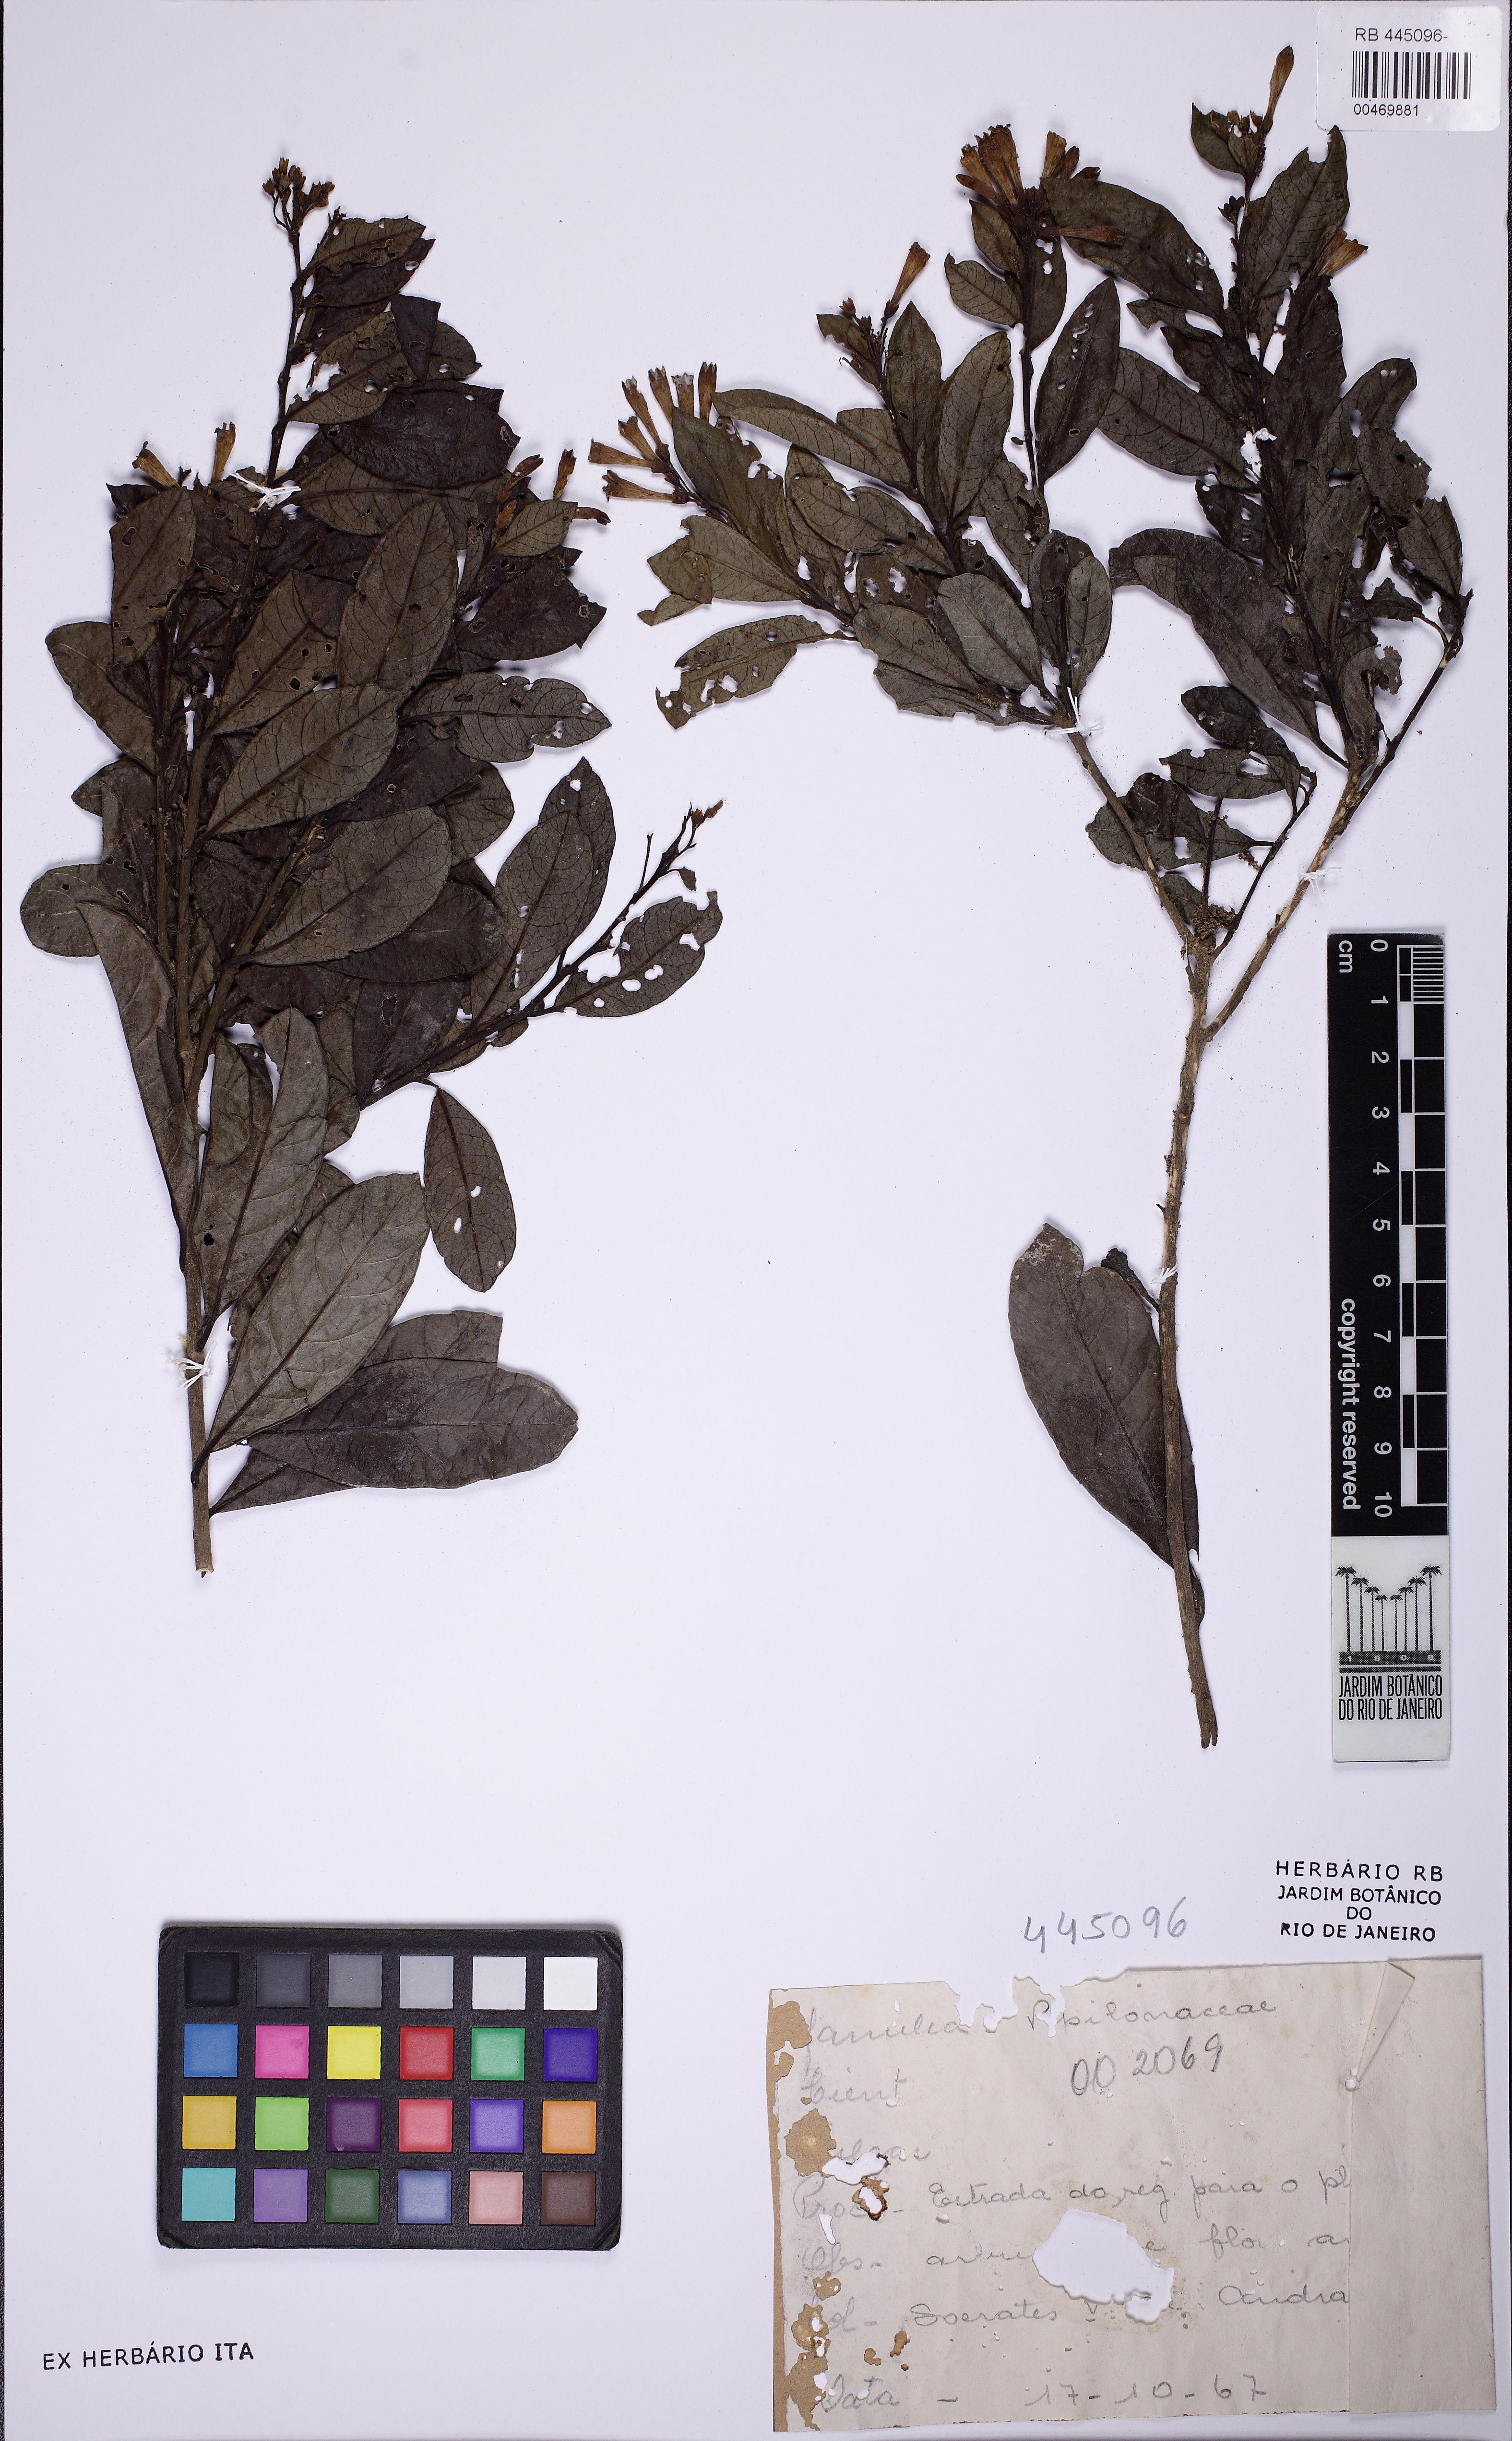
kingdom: Plantae
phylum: Tracheophyta
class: Magnoliopsida
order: Solanales
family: Solanaceae
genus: Cestrum
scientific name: Cestrum corymbosum
